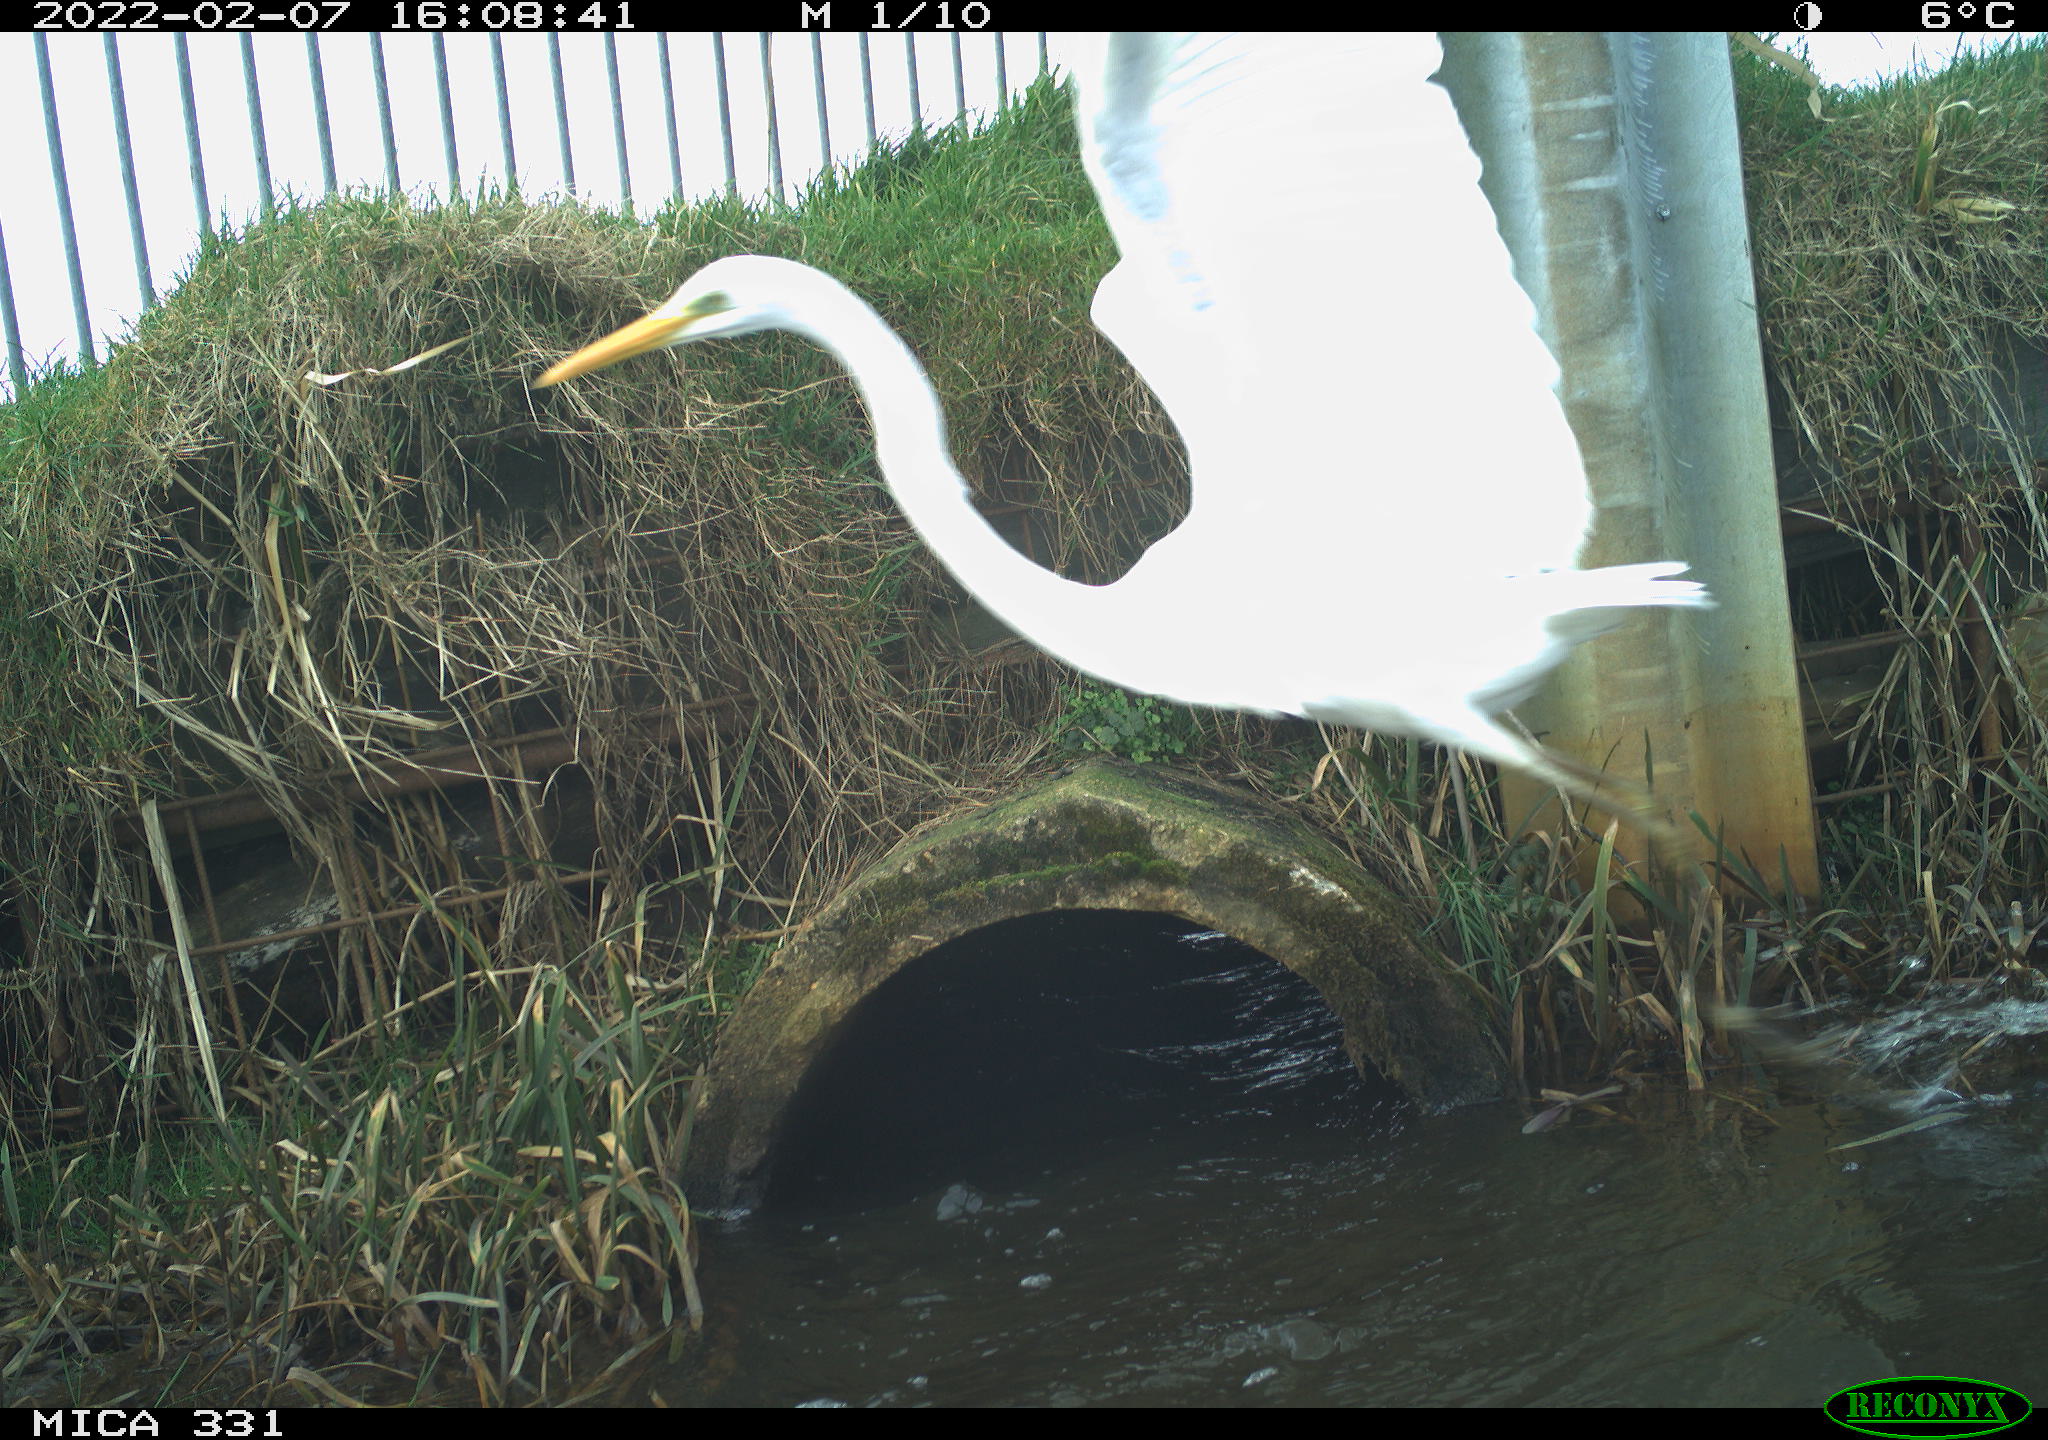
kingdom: Animalia
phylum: Chordata
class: Aves
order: Pelecaniformes
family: Ardeidae
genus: Ardea
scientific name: Ardea alba
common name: Great egret
